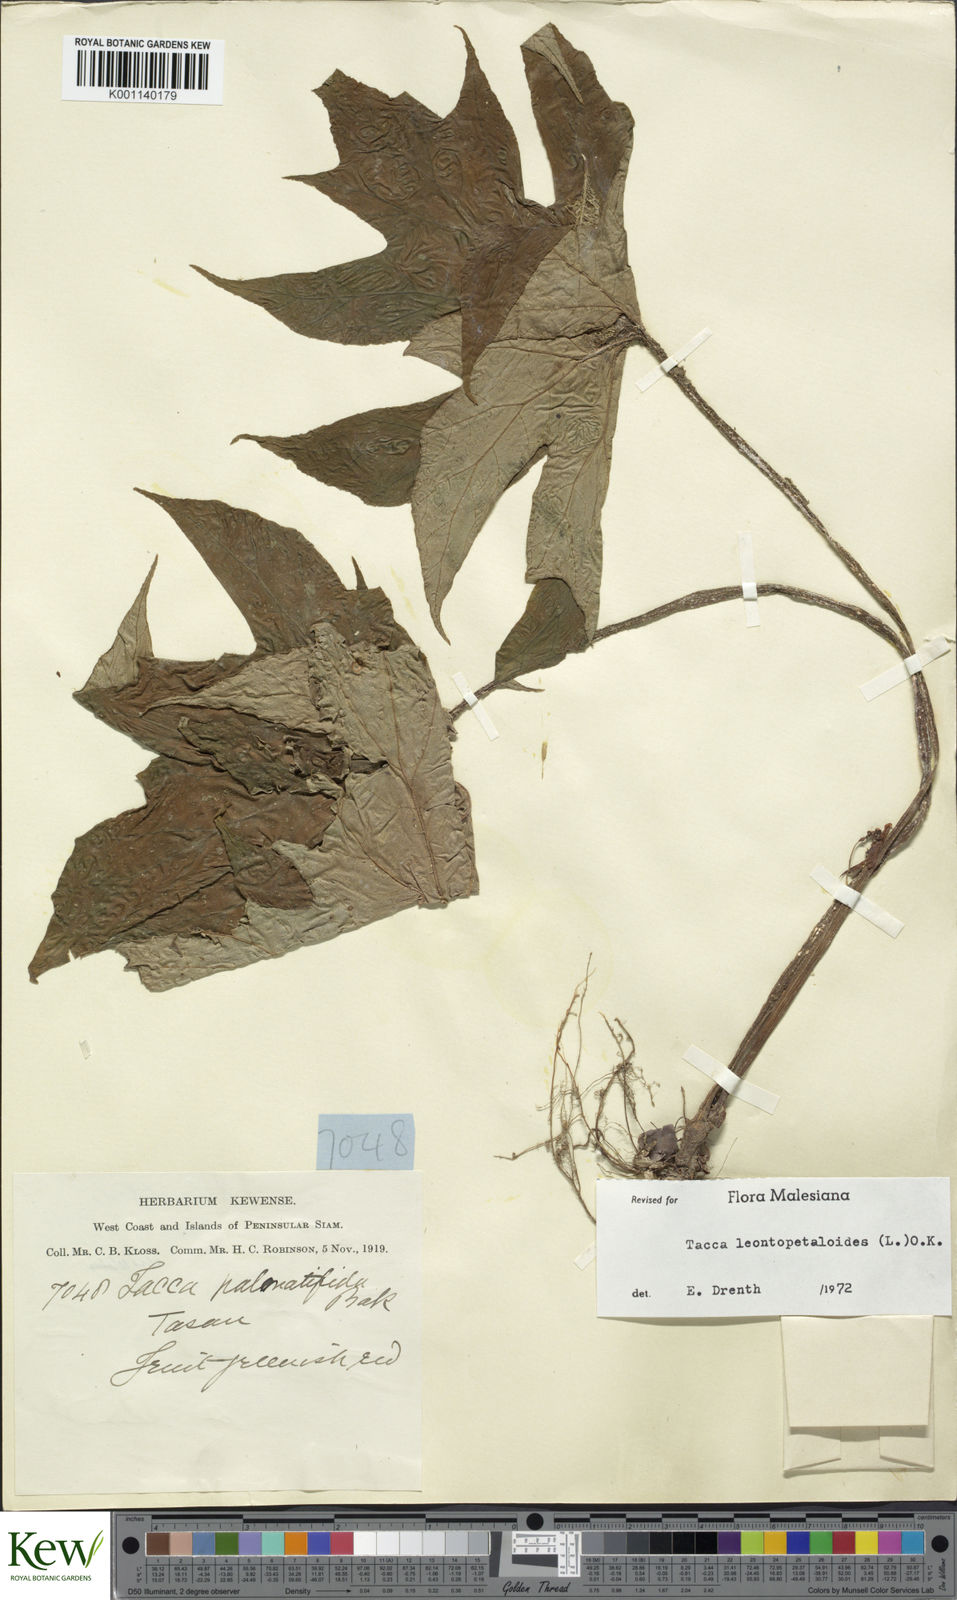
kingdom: Plantae
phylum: Tracheophyta
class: Liliopsida
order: Dioscoreales
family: Dioscoreaceae
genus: Tacca
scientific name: Tacca leontopetaloides
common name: Arrowroot
